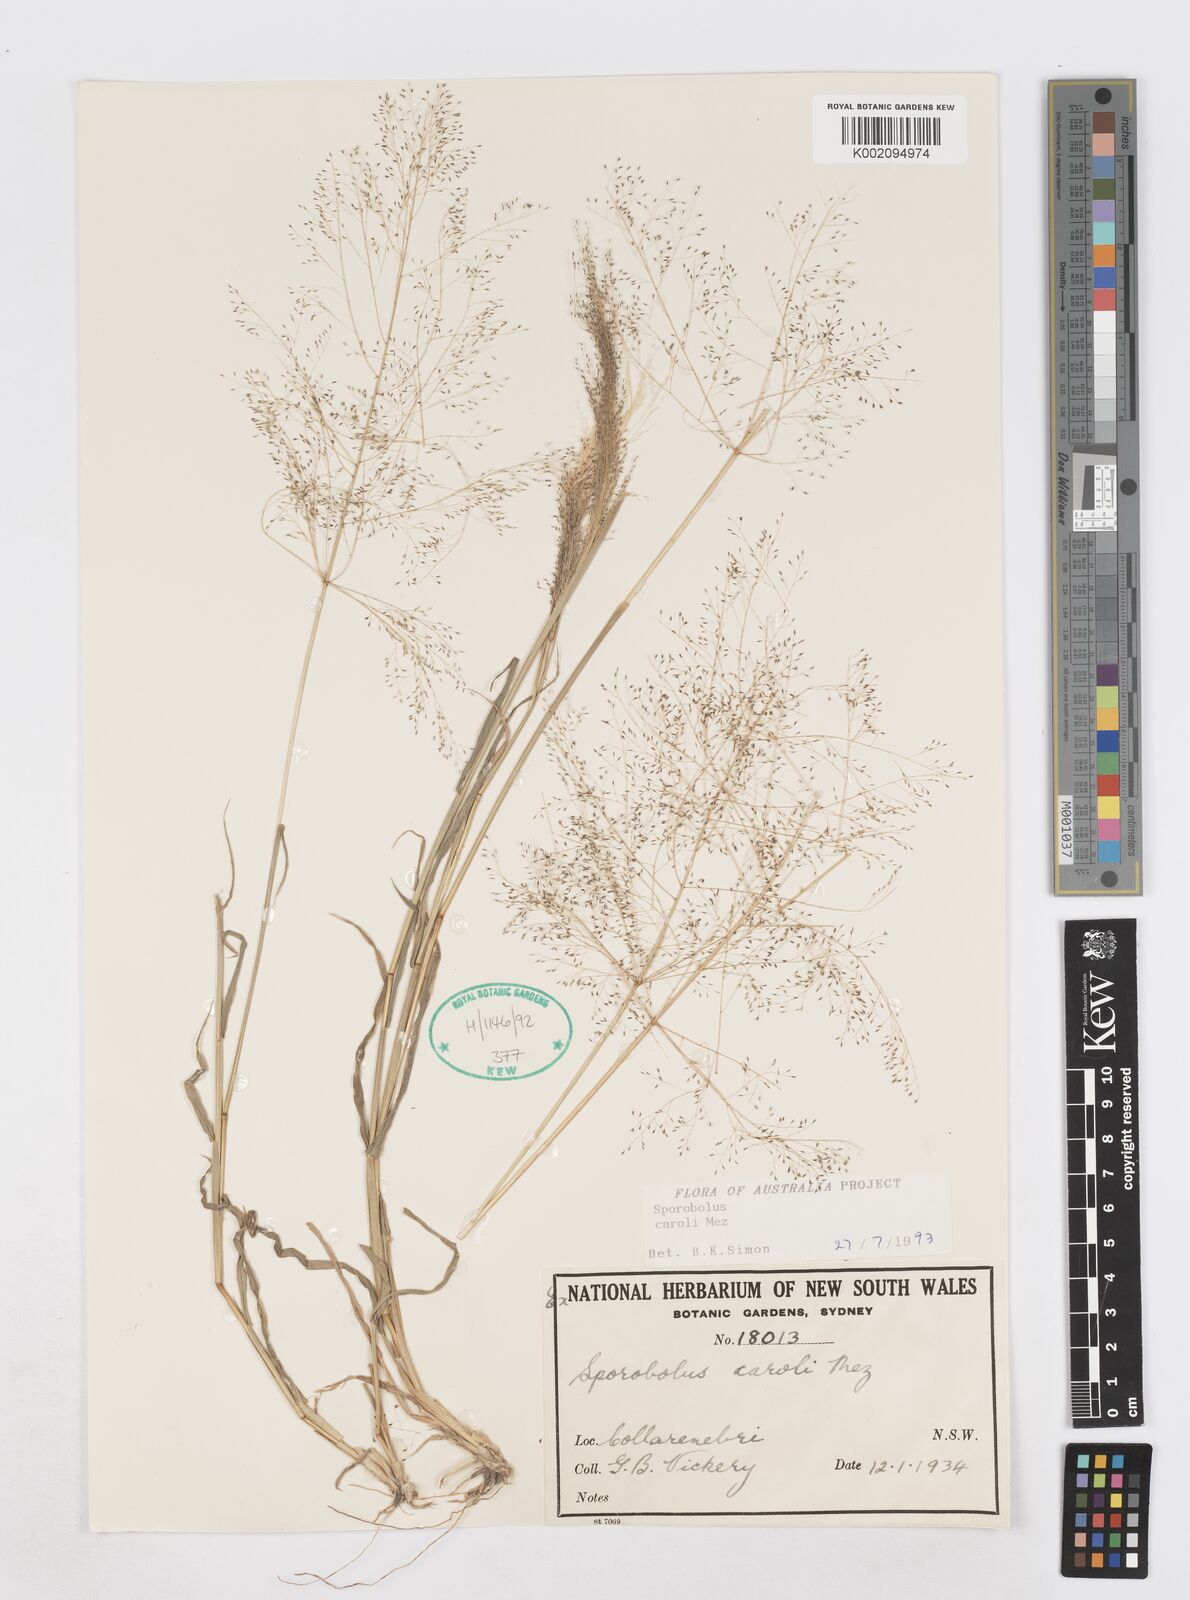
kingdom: Plantae
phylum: Tracheophyta
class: Liliopsida
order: Poales
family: Poaceae
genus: Sporobolus
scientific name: Sporobolus caroli
